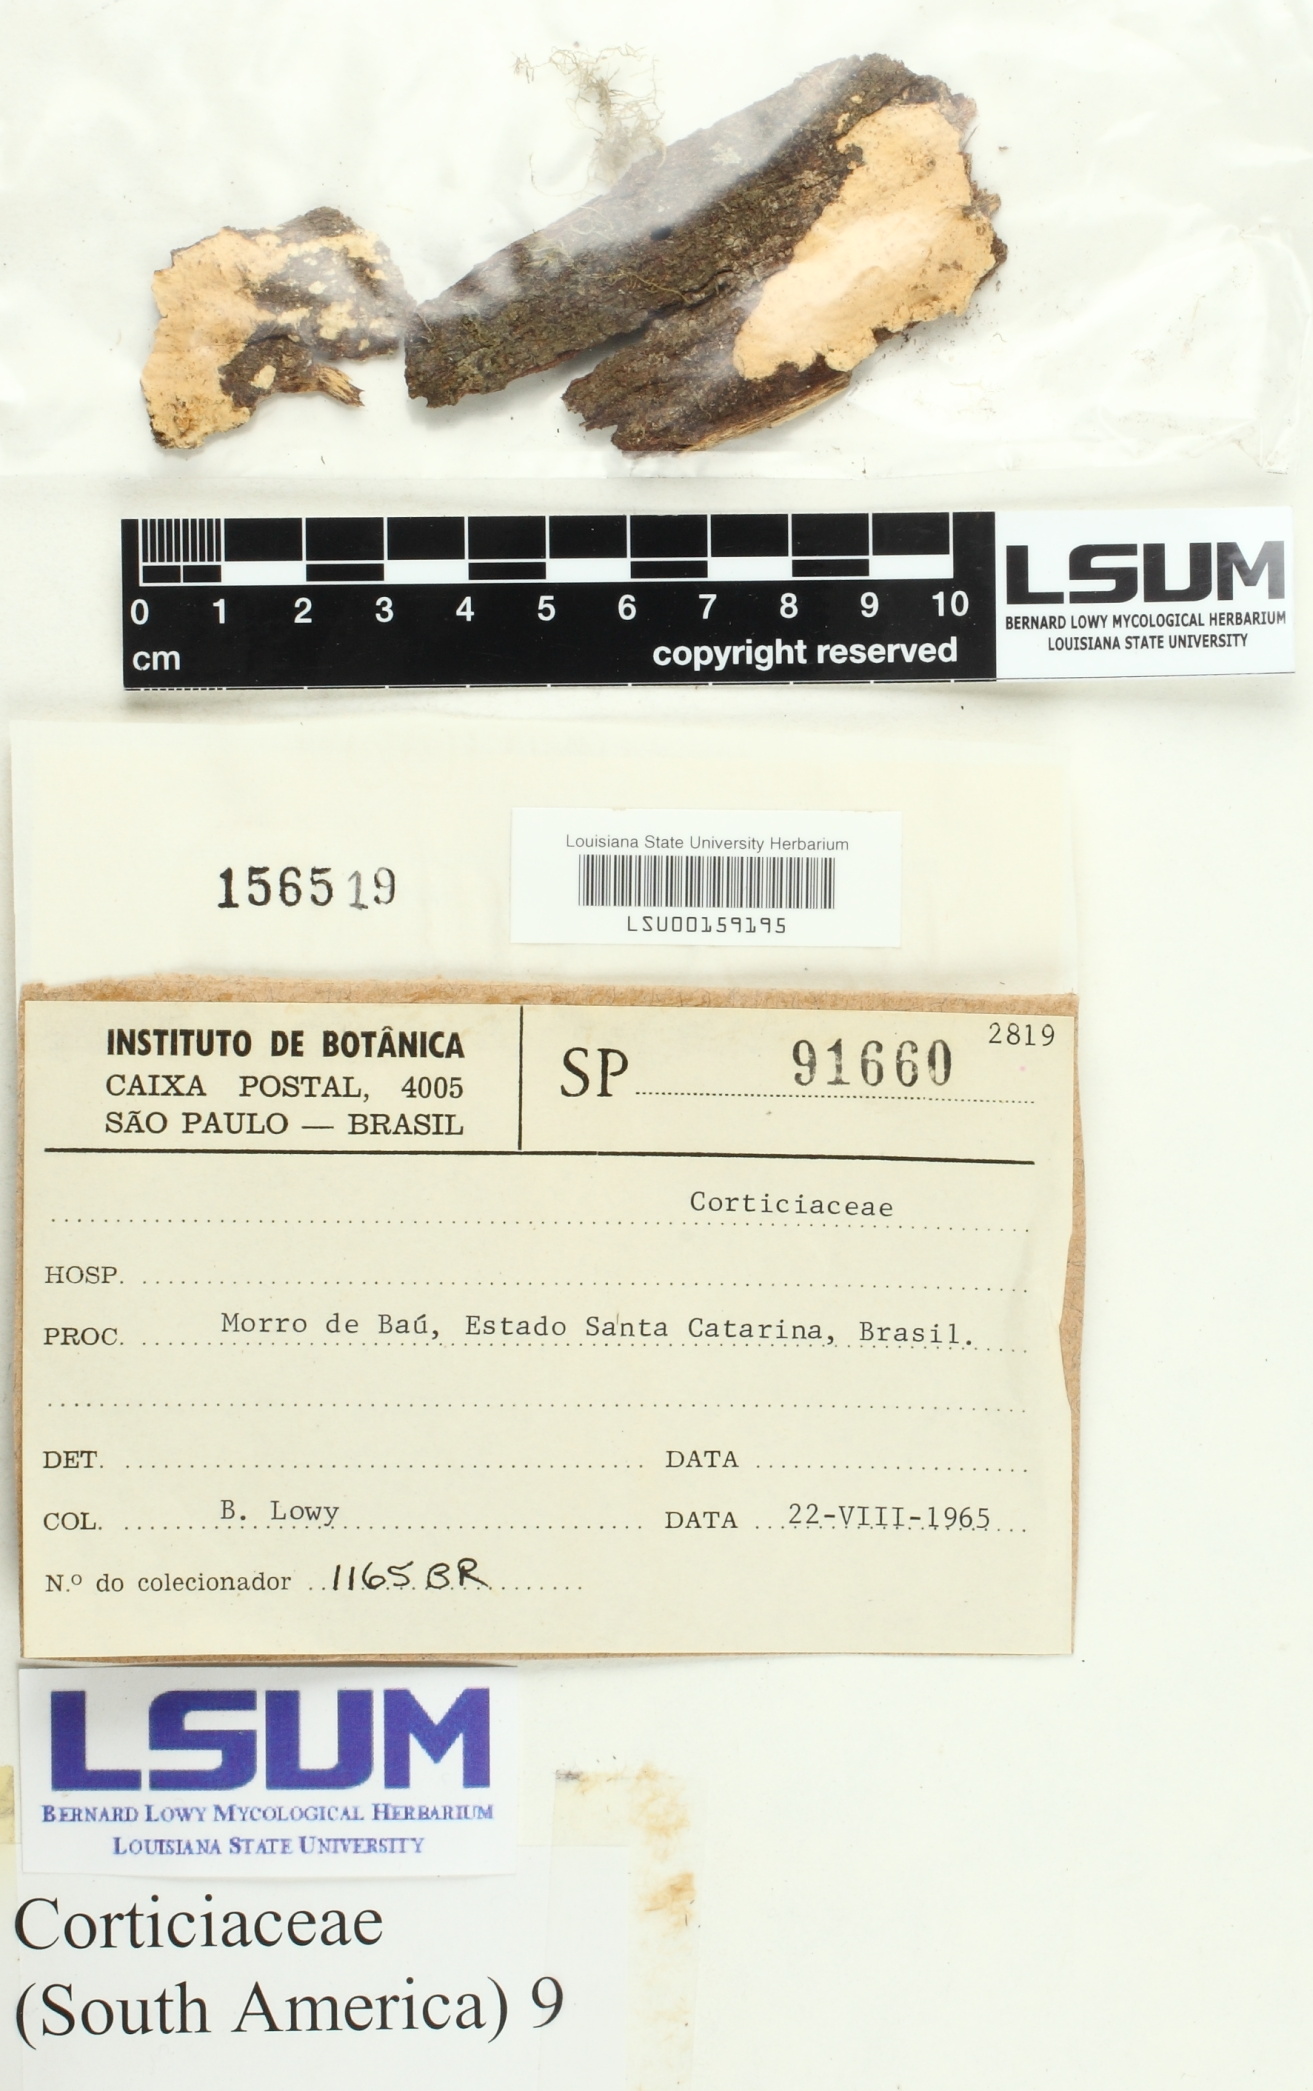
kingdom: Fungi
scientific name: Fungi
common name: Fungi
